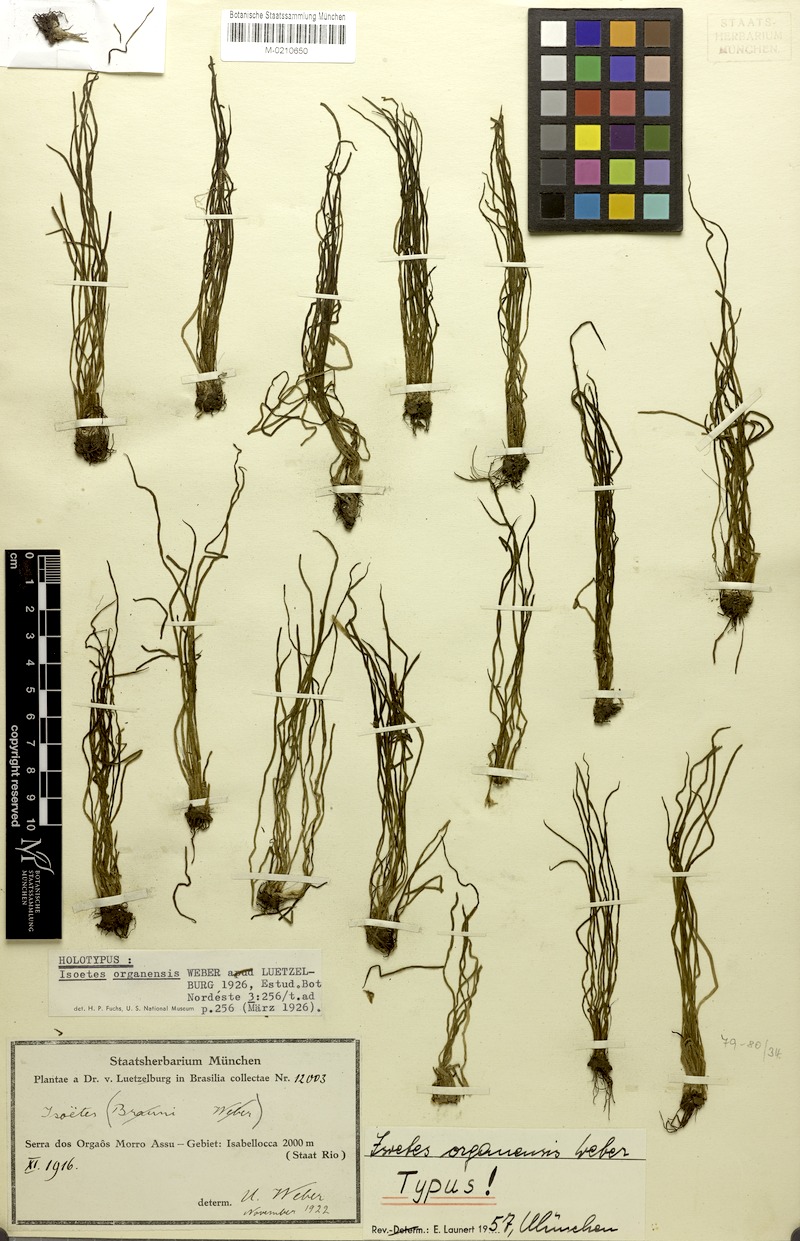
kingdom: Plantae
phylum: Tracheophyta
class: Lycopodiopsida
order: Isoetales
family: Isoetaceae
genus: Isoetes
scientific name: Isoetes organensis
